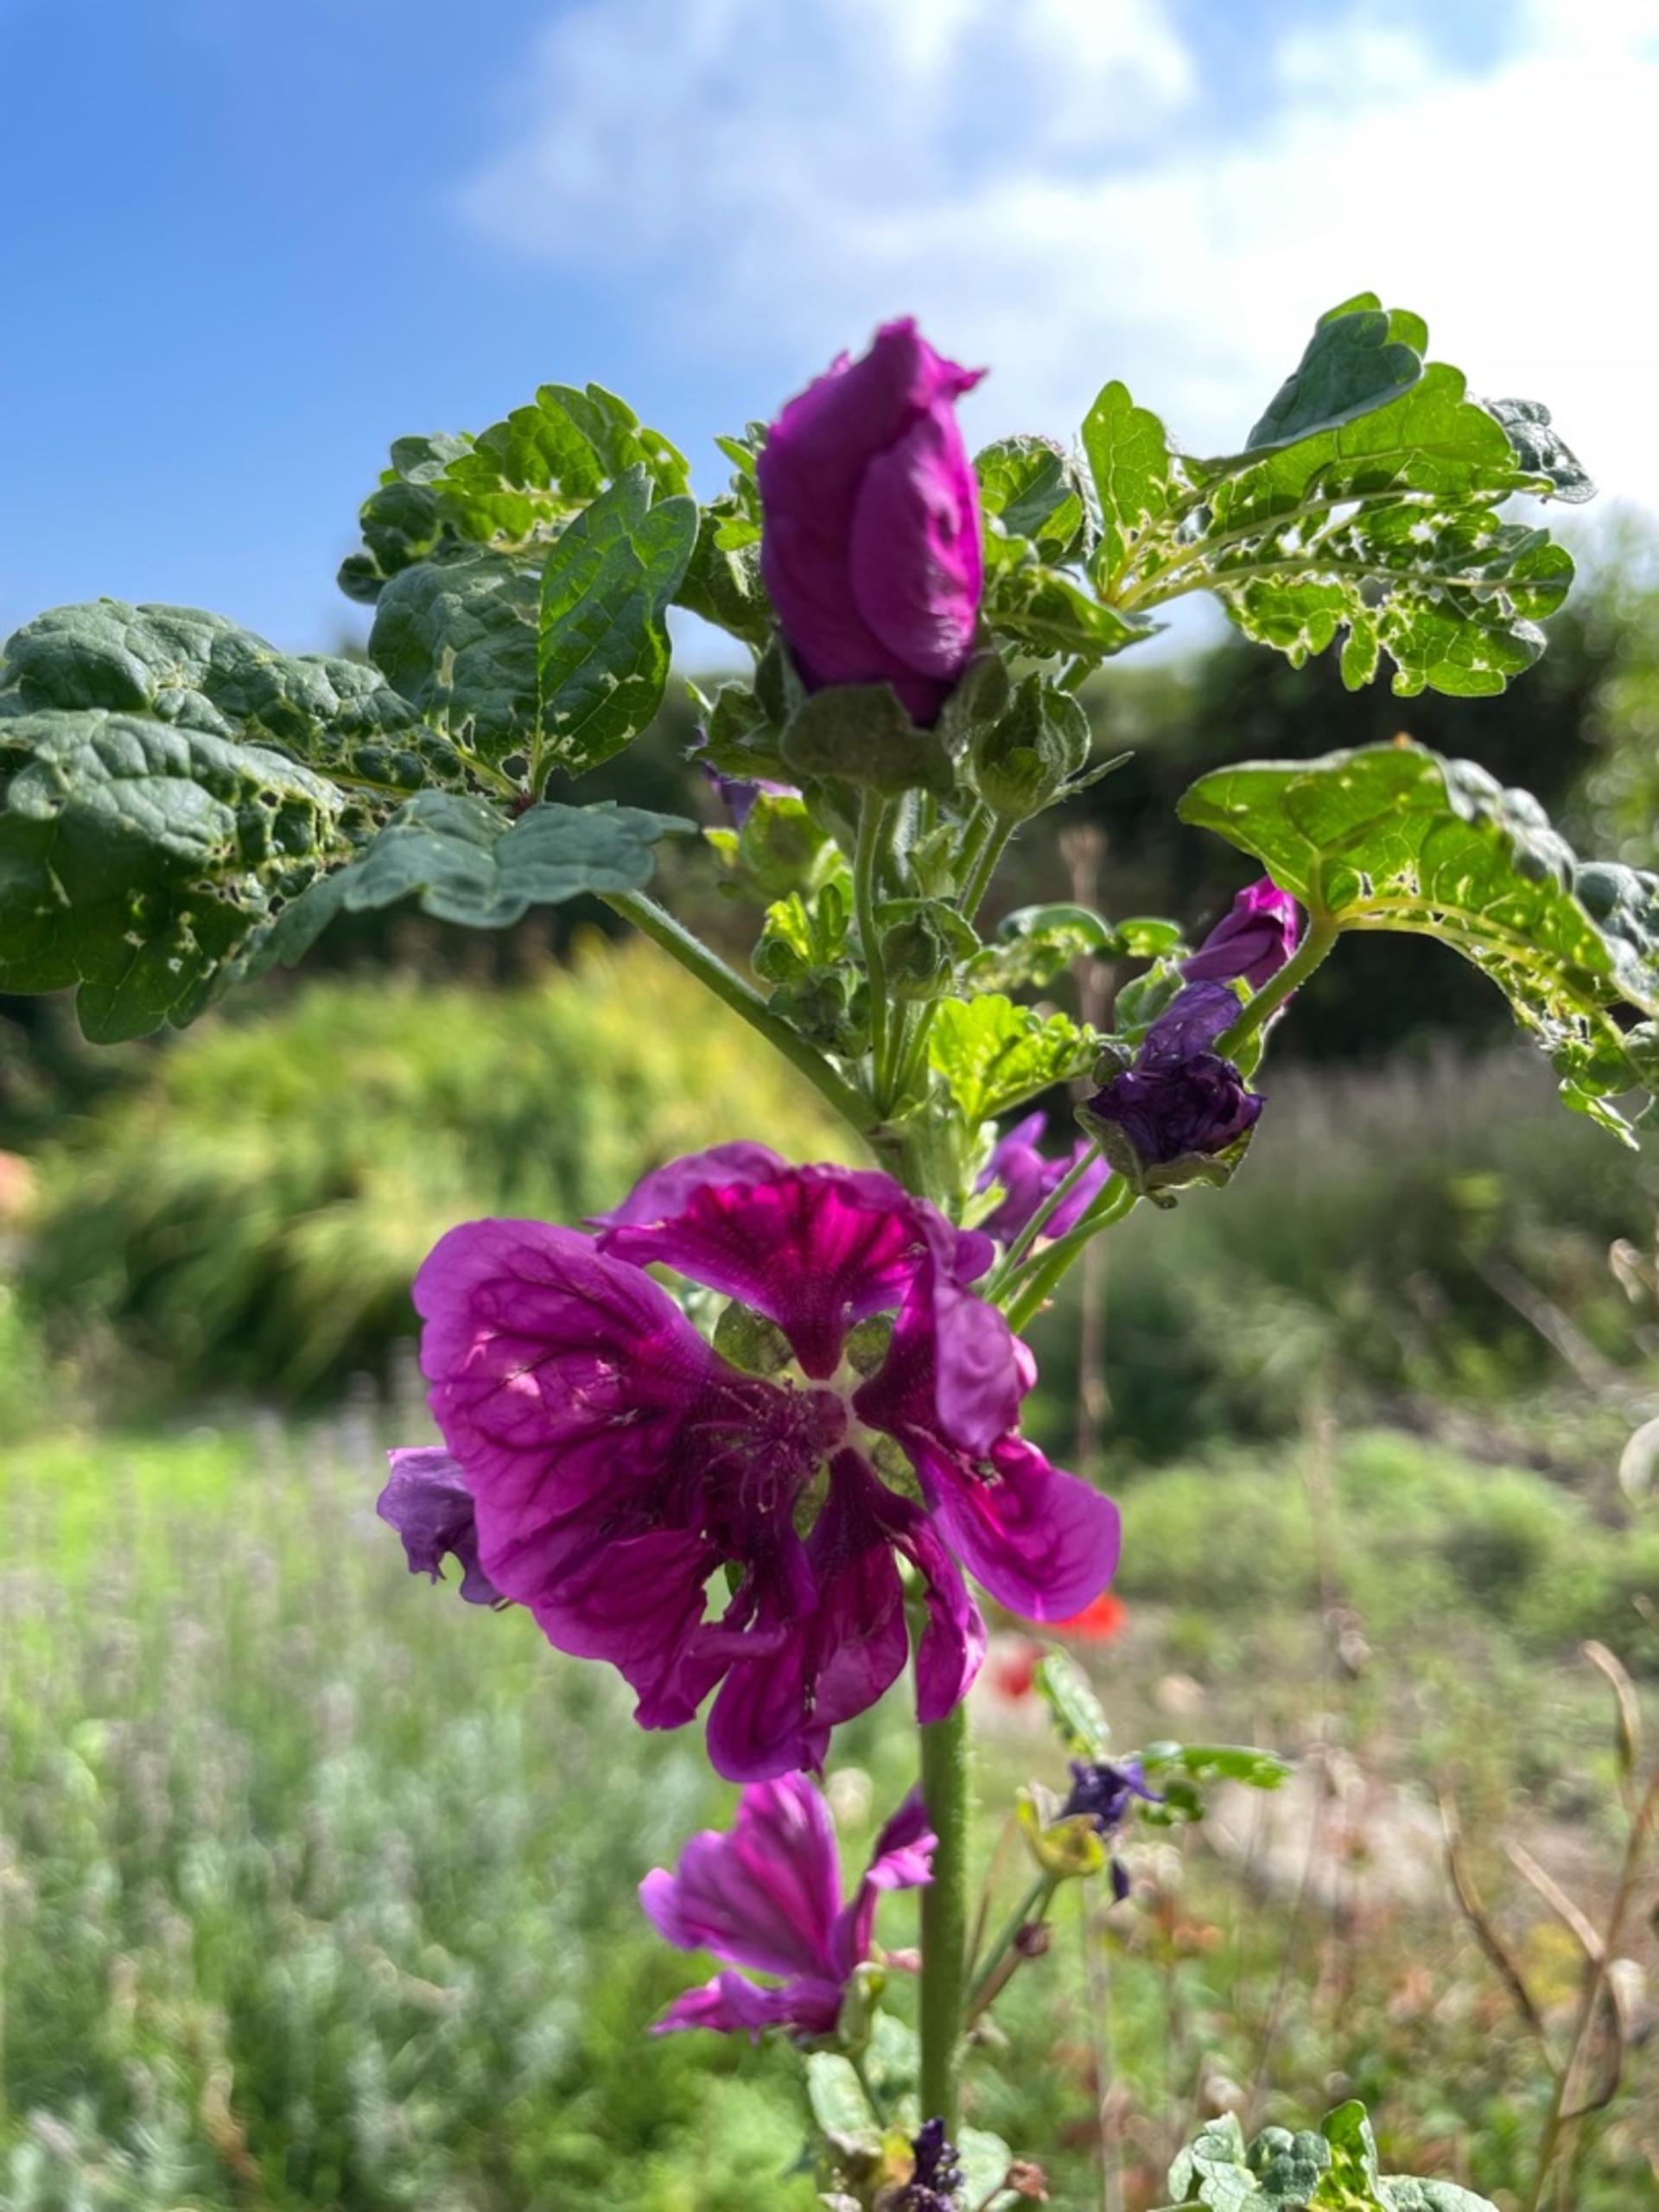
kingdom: Plantae
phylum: Tracheophyta
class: Magnoliopsida
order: Malvales
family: Malvaceae
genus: Malva
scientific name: Malva sylvestris
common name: Stor katost
